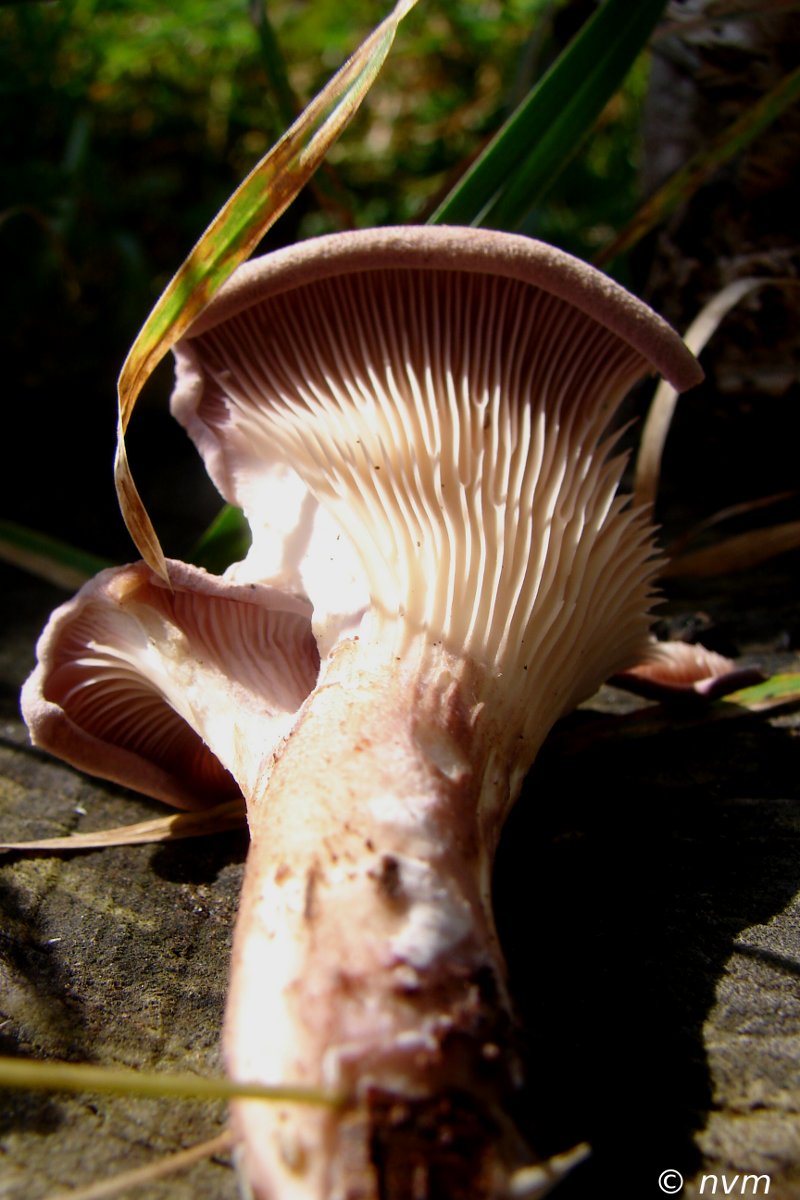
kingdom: Fungi
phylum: Basidiomycota
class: Agaricomycetes
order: Polyporales
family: Panaceae
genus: Panus
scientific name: Panus conchatus
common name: filtstokket læderhat
